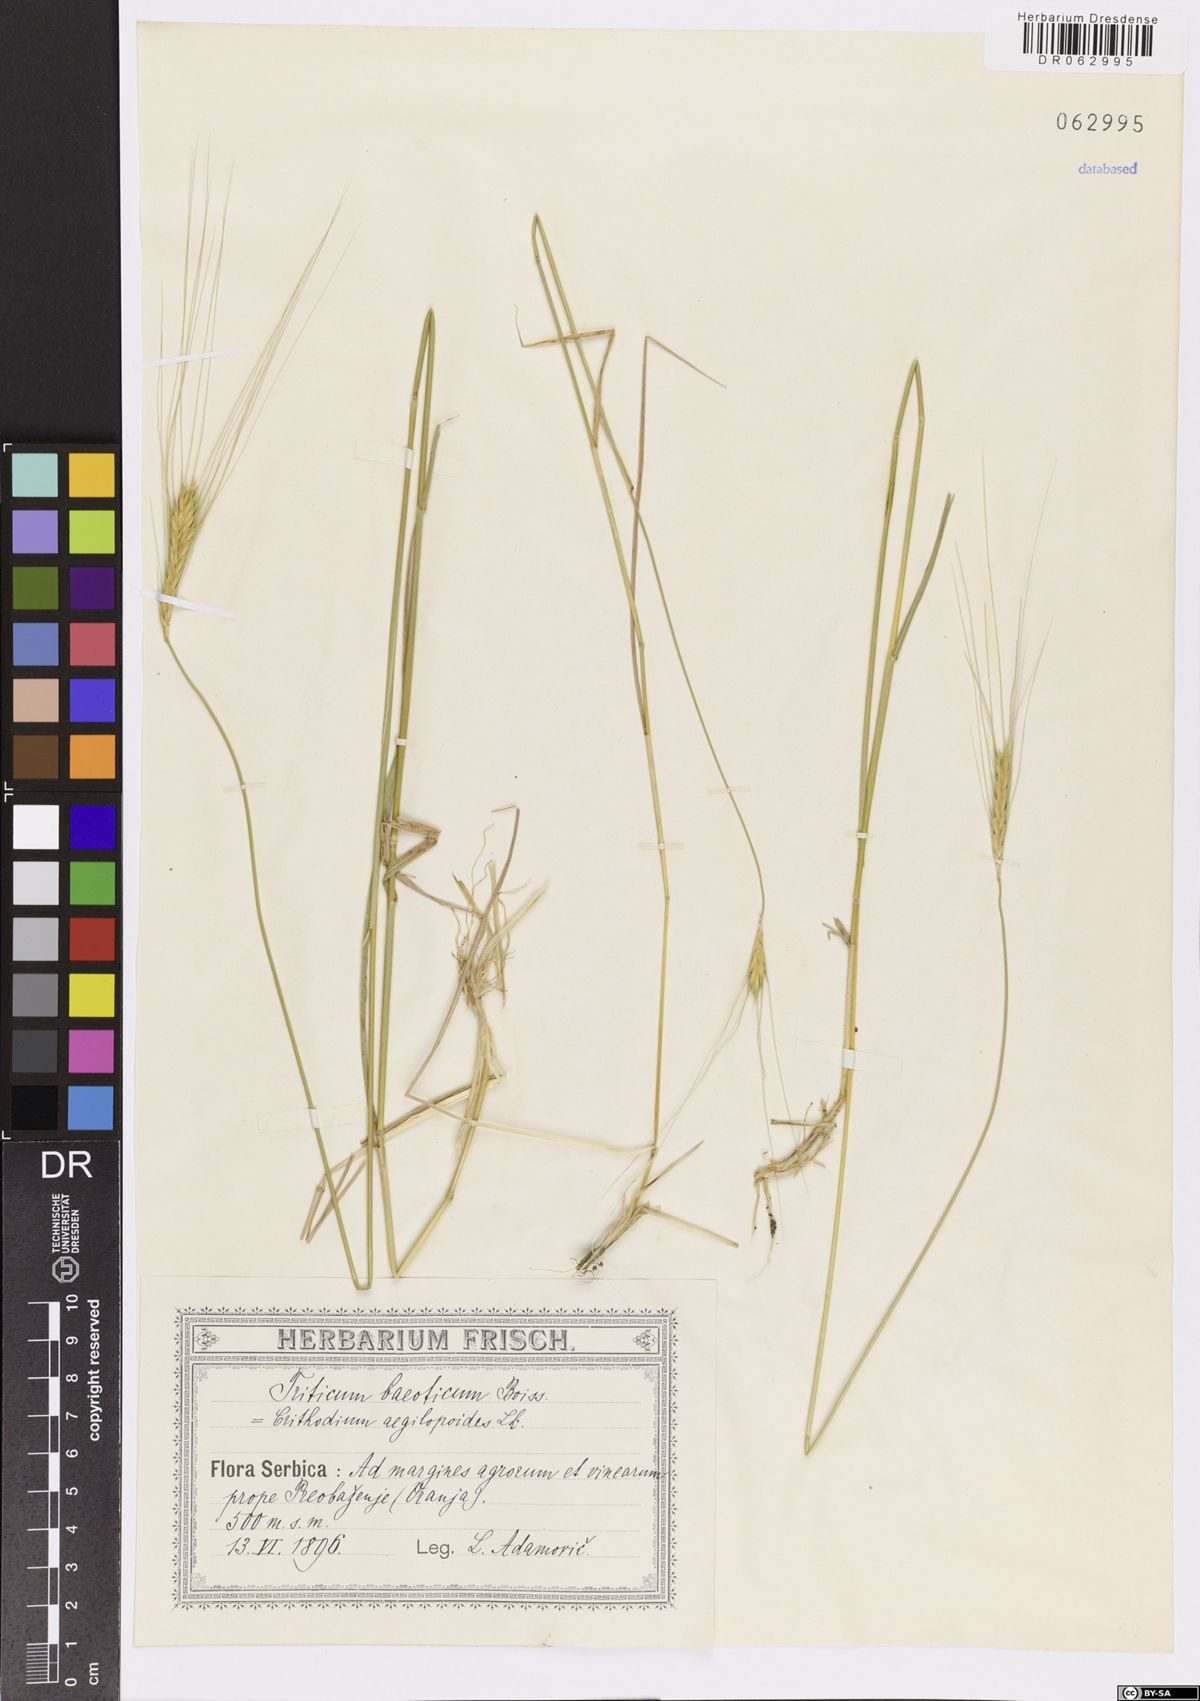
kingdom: Plantae
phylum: Tracheophyta
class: Liliopsida
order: Poales
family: Poaceae
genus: Triticum
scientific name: Triticum monococcum
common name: Einkorn
